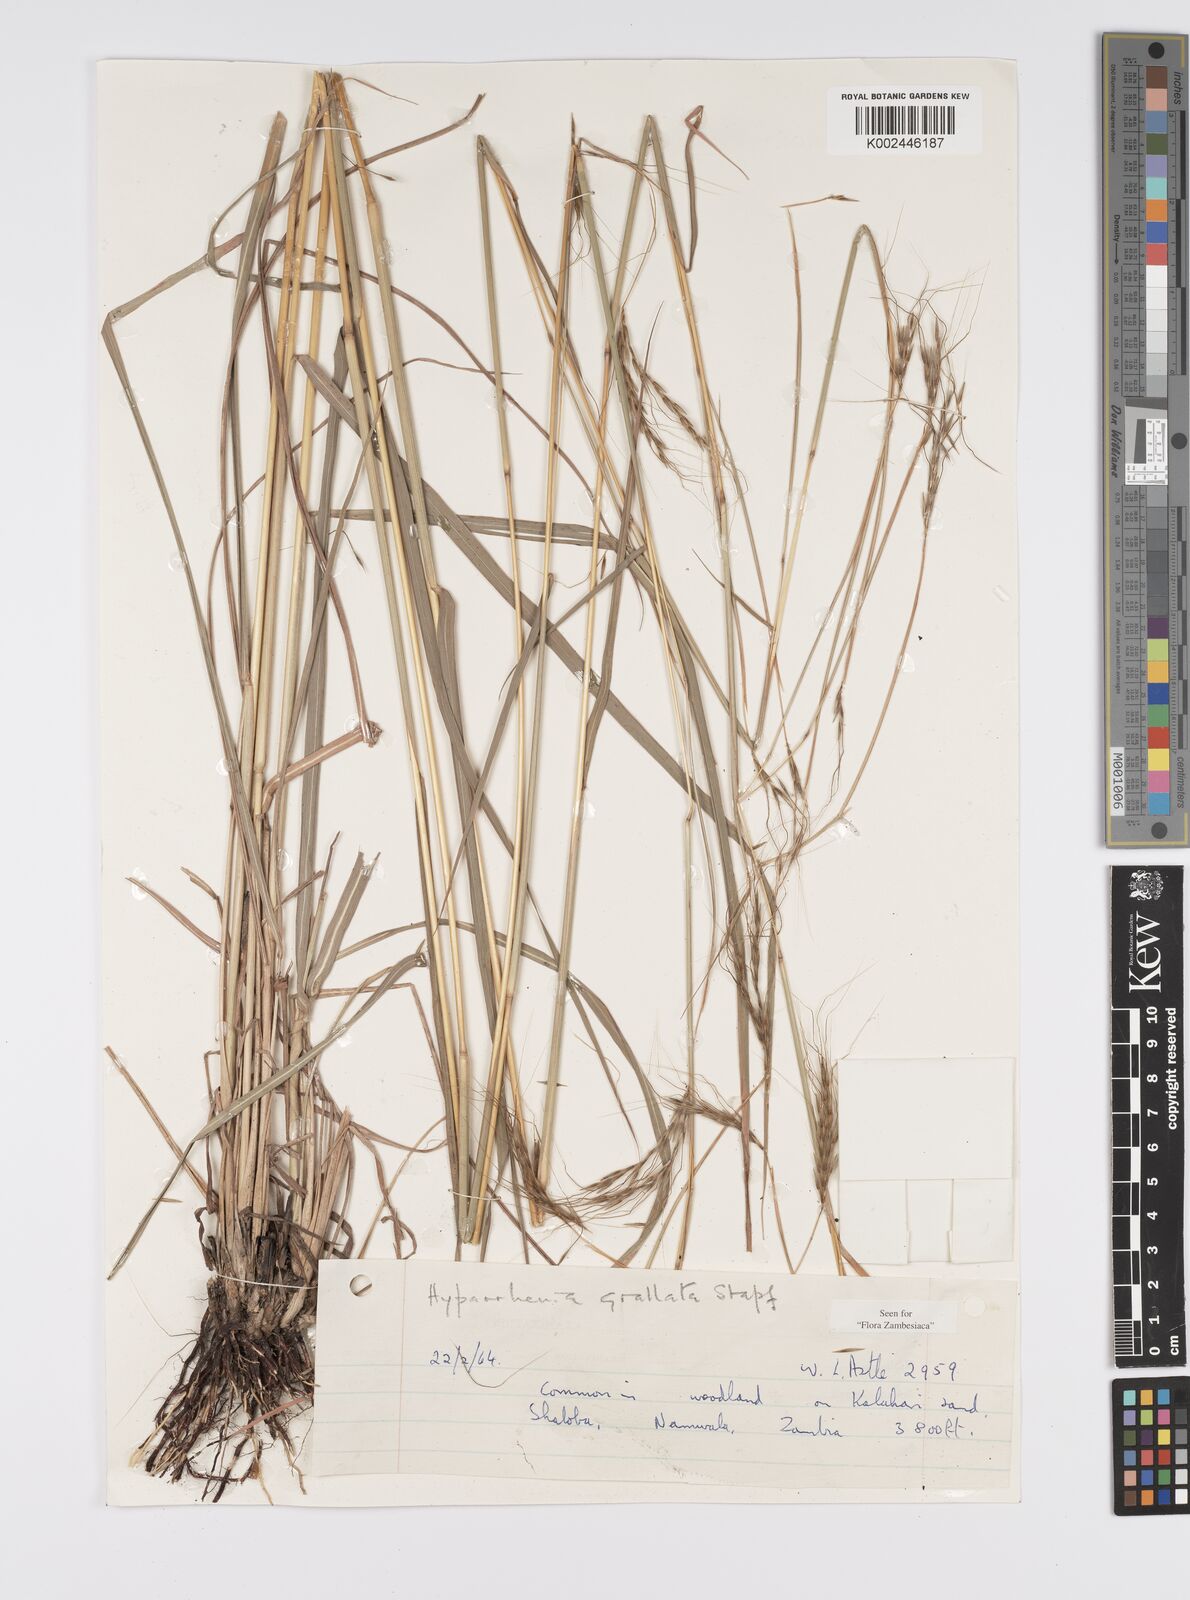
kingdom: Plantae
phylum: Tracheophyta
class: Liliopsida
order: Poales
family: Poaceae
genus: Elymandra
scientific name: Elymandra grallata
